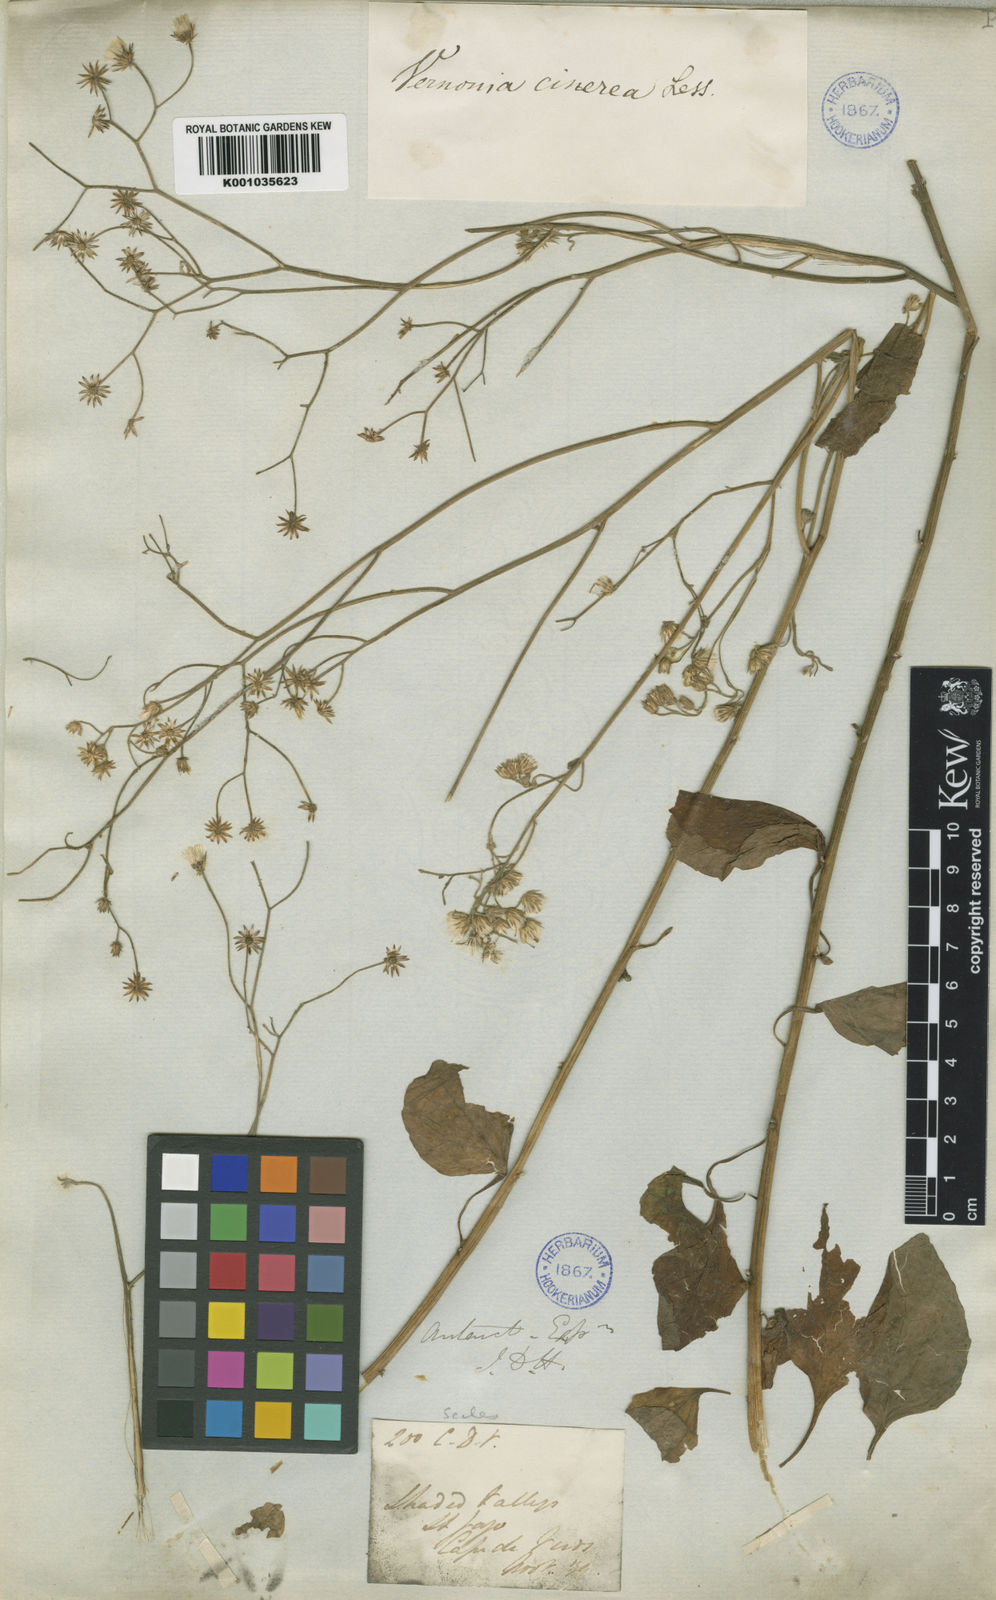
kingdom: Plantae
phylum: Tracheophyta
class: Magnoliopsida
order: Asterales
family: Asteraceae
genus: Cyanthillium
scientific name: Cyanthillium cinereum
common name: Little ironweed
